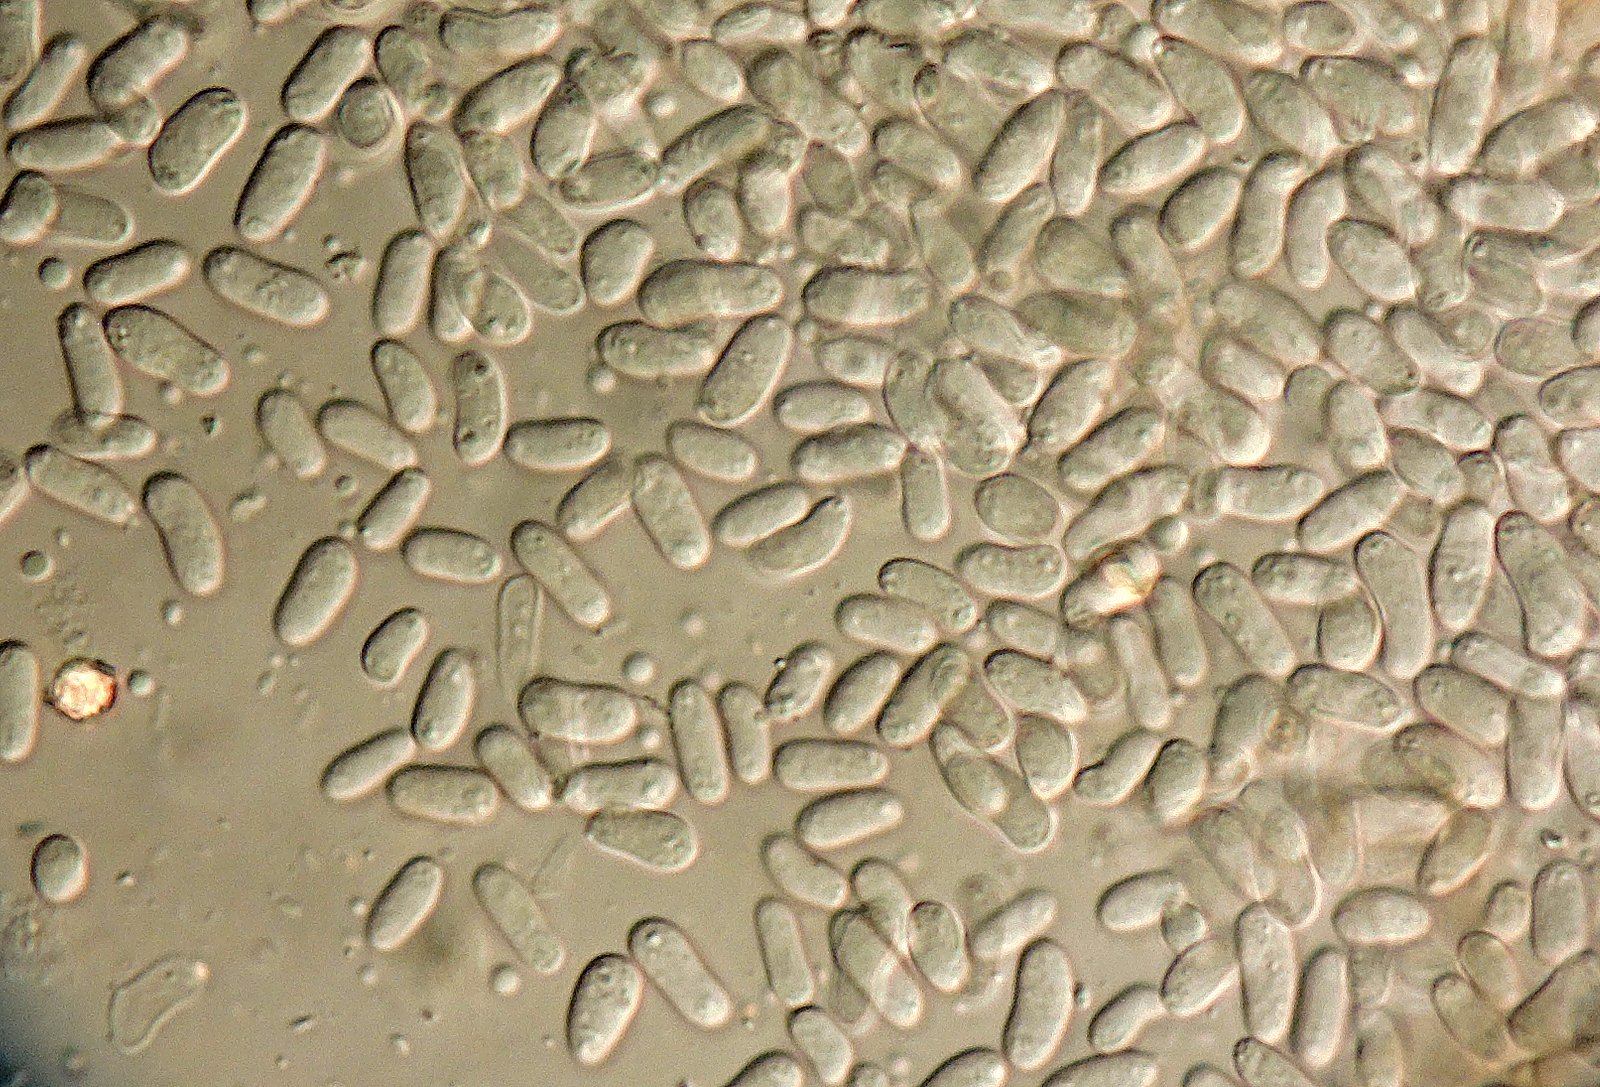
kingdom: Fungi
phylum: Ascomycota
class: Dothideomycetes
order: Pleosporales
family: Didymellaceae
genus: Didymella
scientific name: Didymella rumicicola
